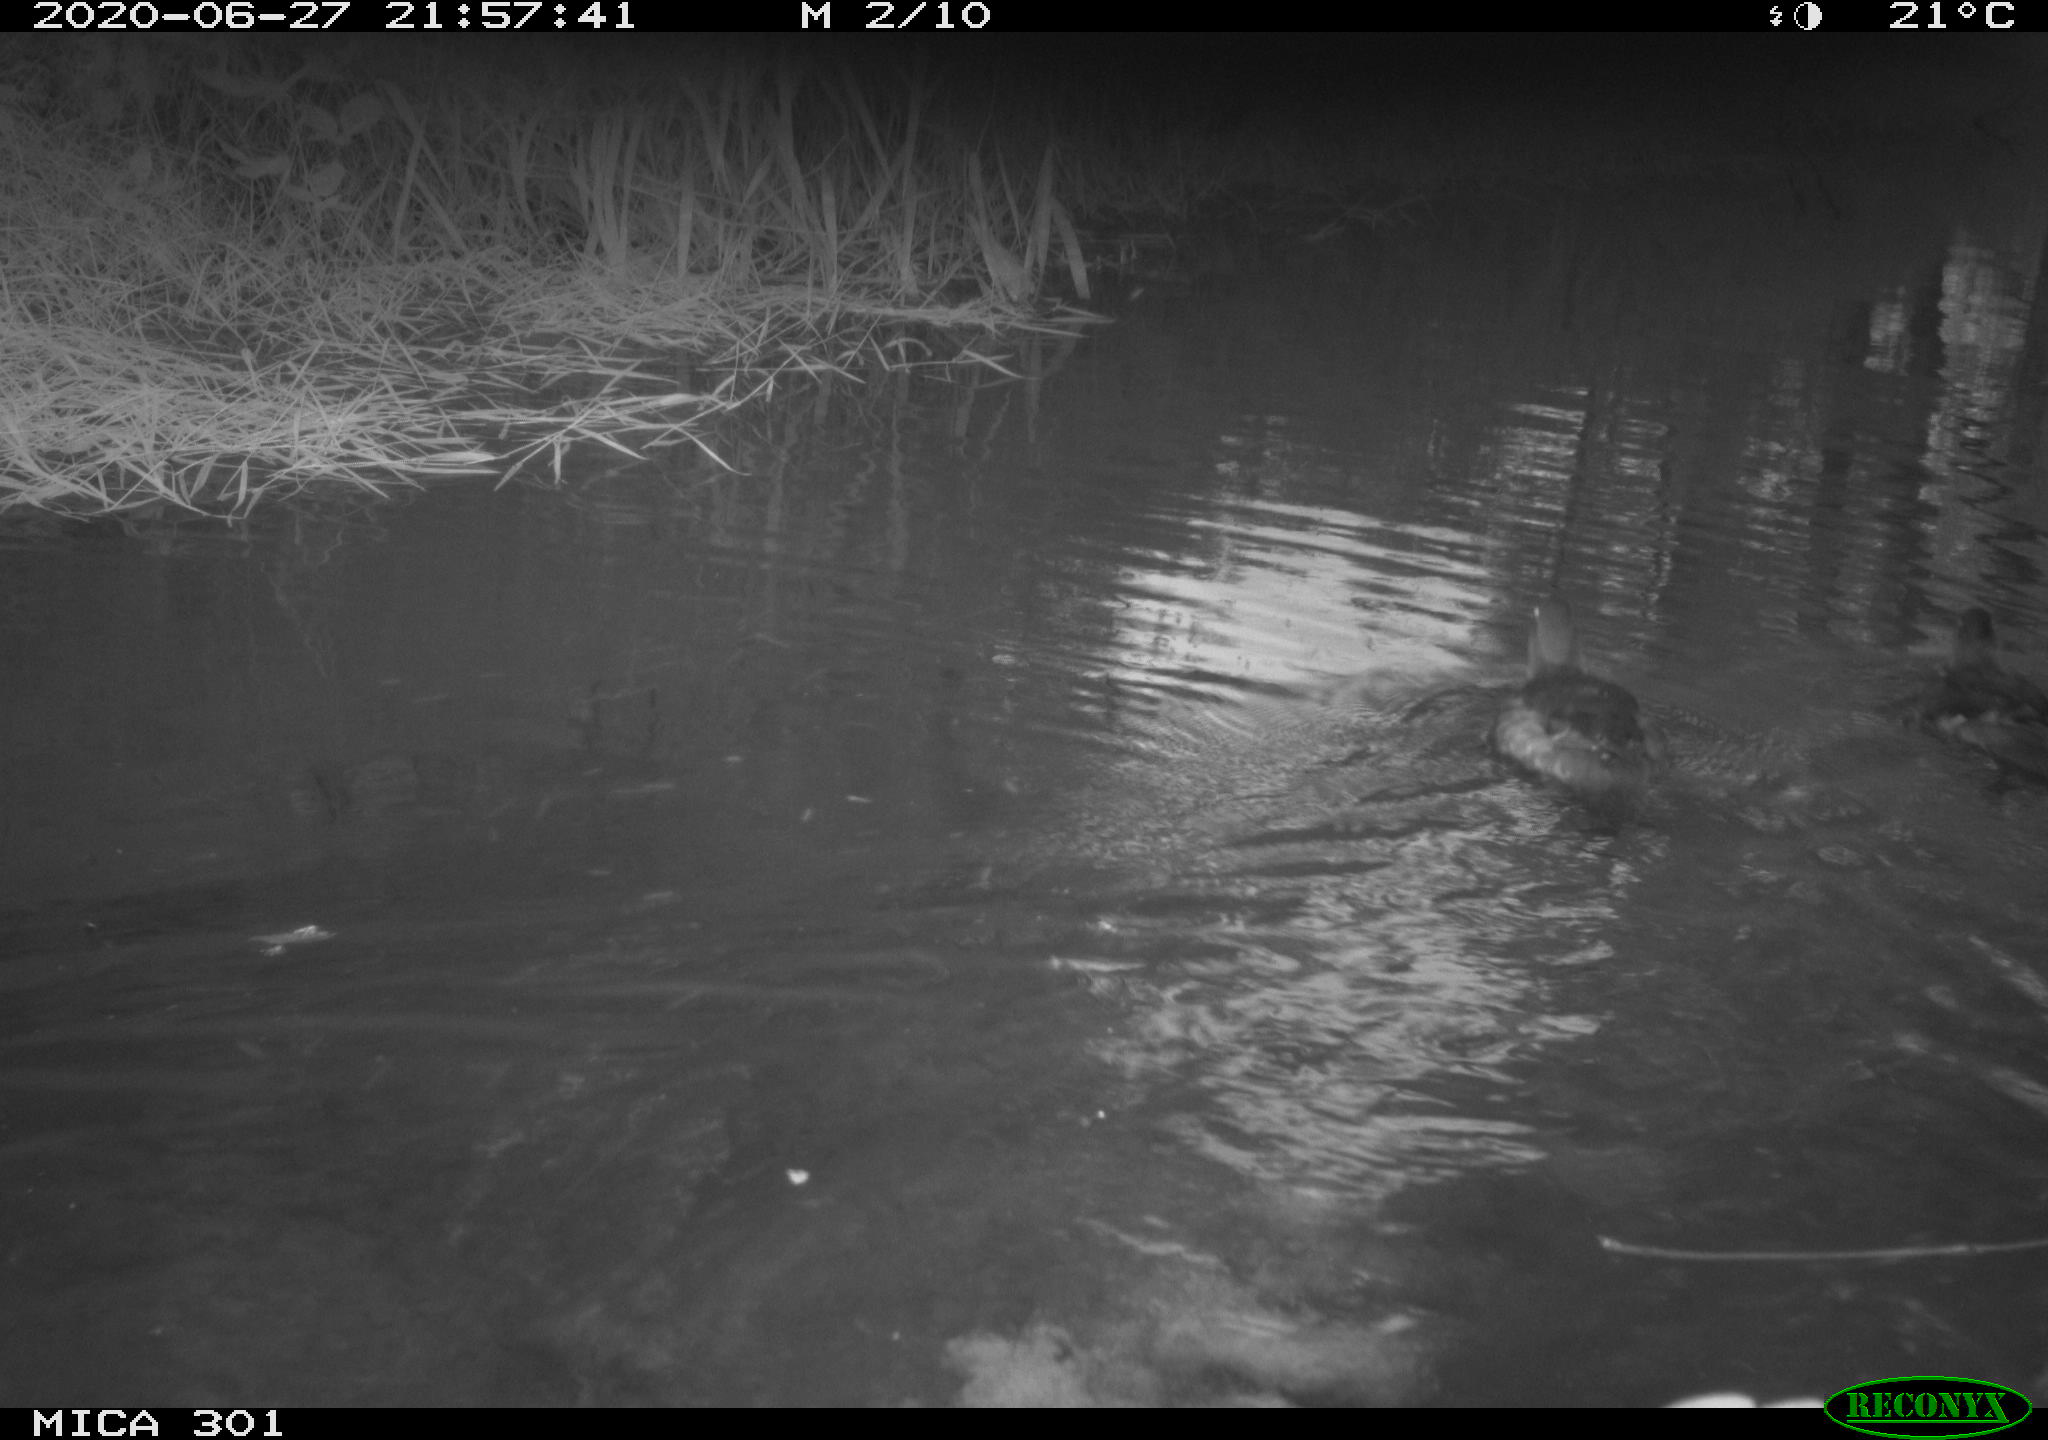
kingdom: Animalia
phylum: Chordata
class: Aves
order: Anseriformes
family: Anatidae
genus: Aix
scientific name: Aix galericulata
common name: Mandarin duck
